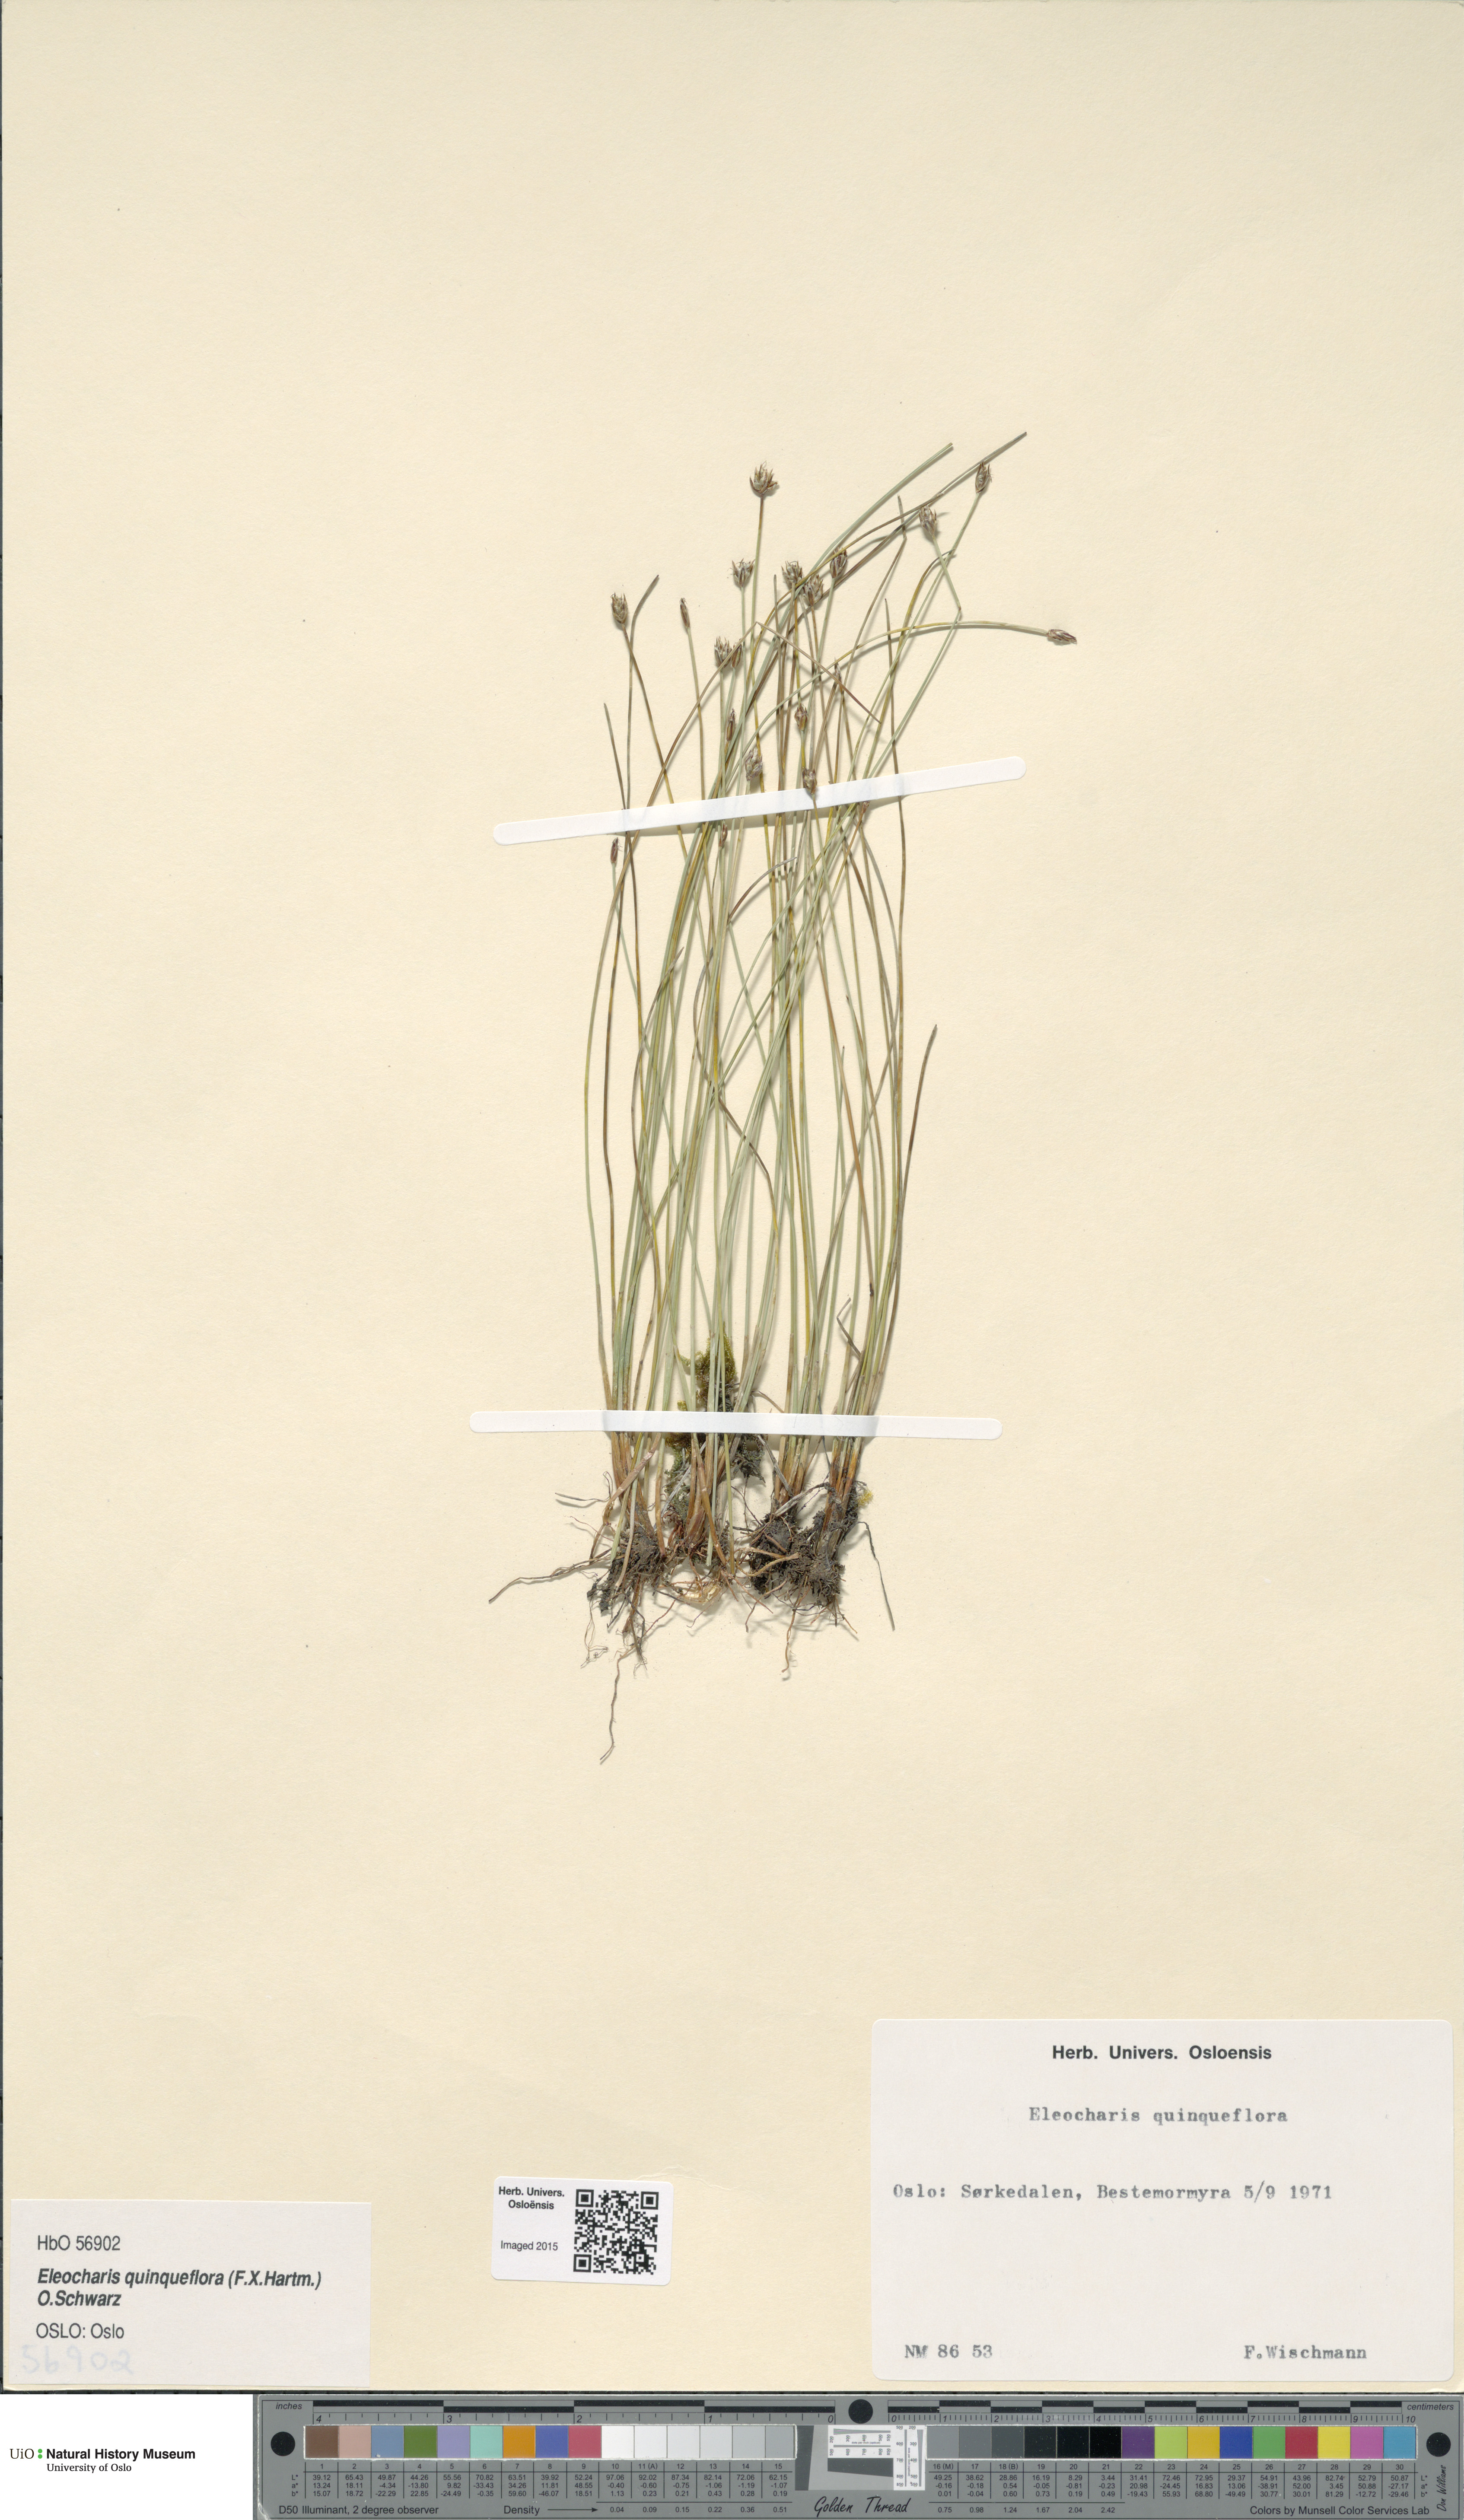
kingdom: Plantae
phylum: Tracheophyta
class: Liliopsida
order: Poales
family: Cyperaceae
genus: Eleocharis
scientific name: Eleocharis quinqueflora
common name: Few-flowered spike-rush
